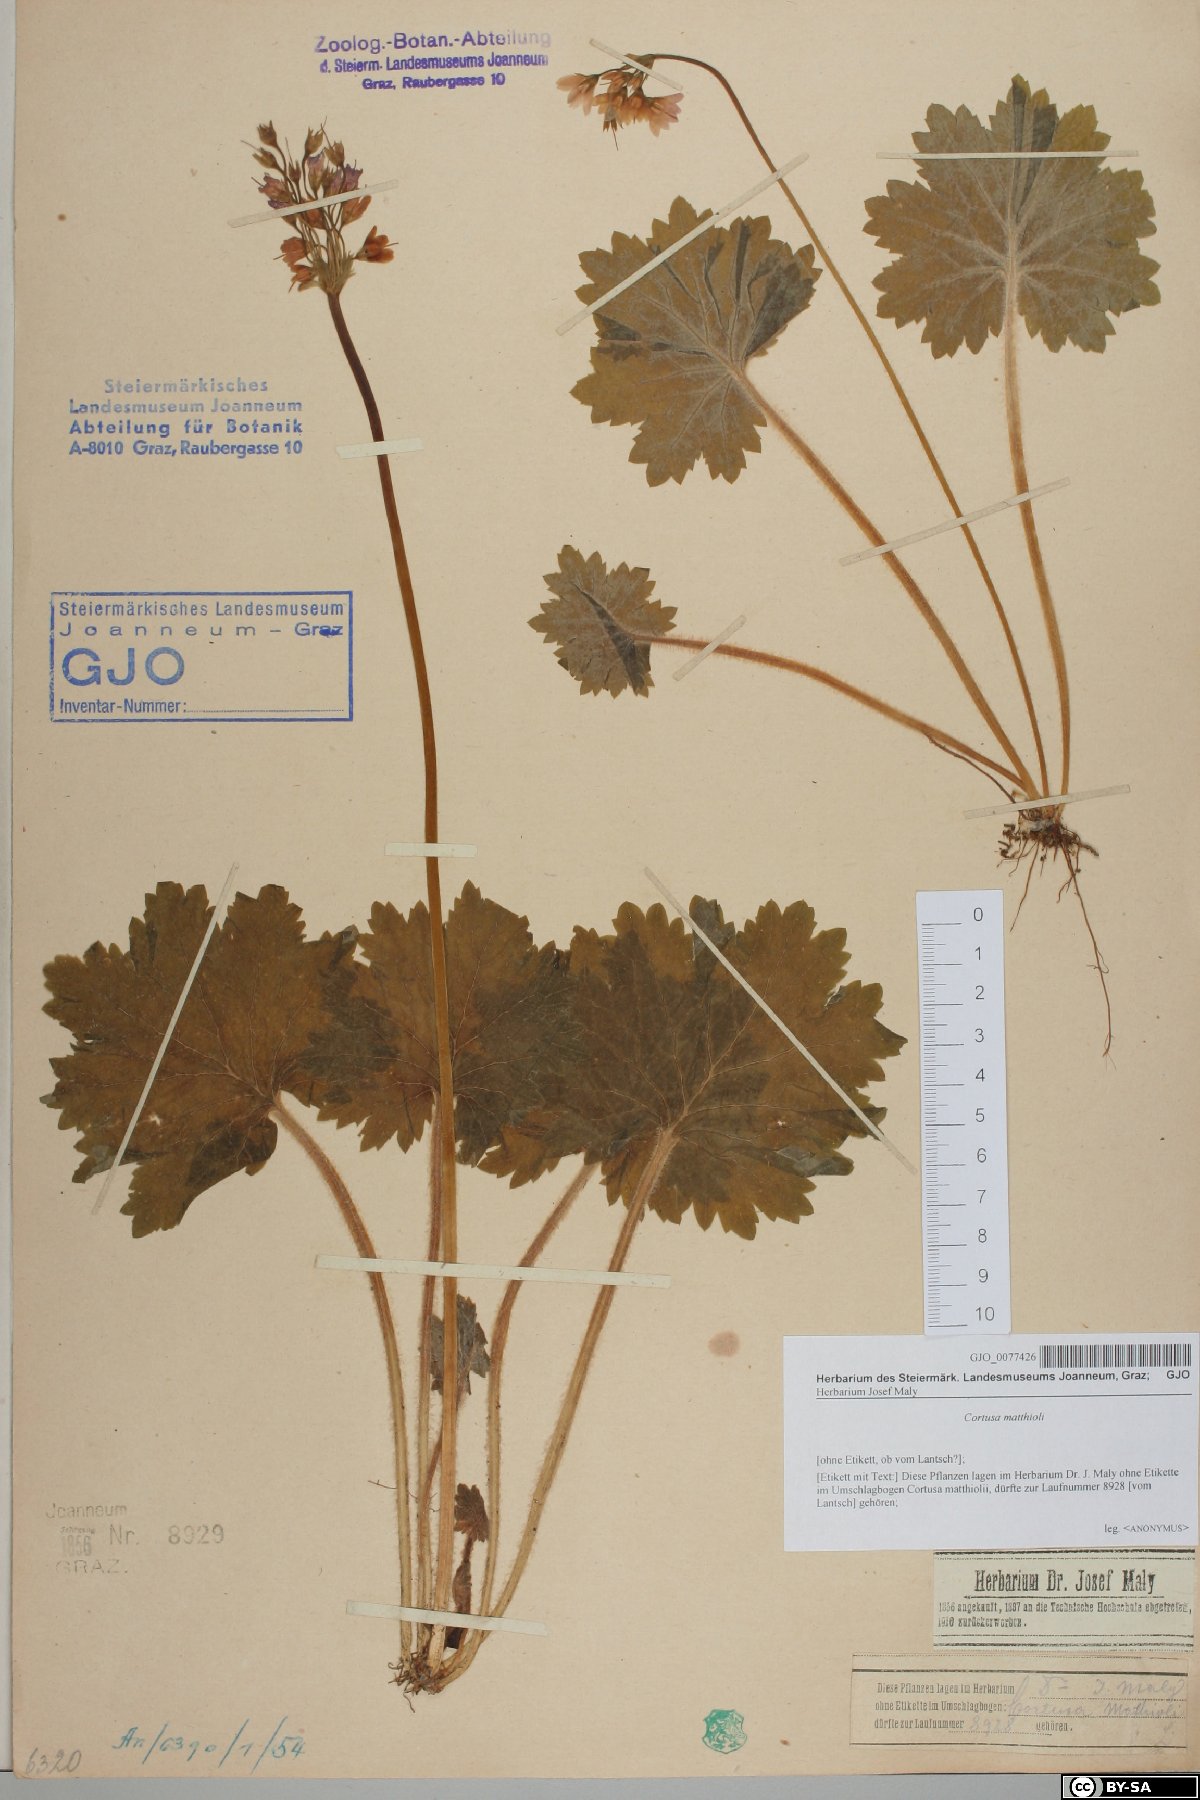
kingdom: Plantae
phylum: Tracheophyta
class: Magnoliopsida
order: Ericales
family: Primulaceae
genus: Primula
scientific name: Primula matthioli
